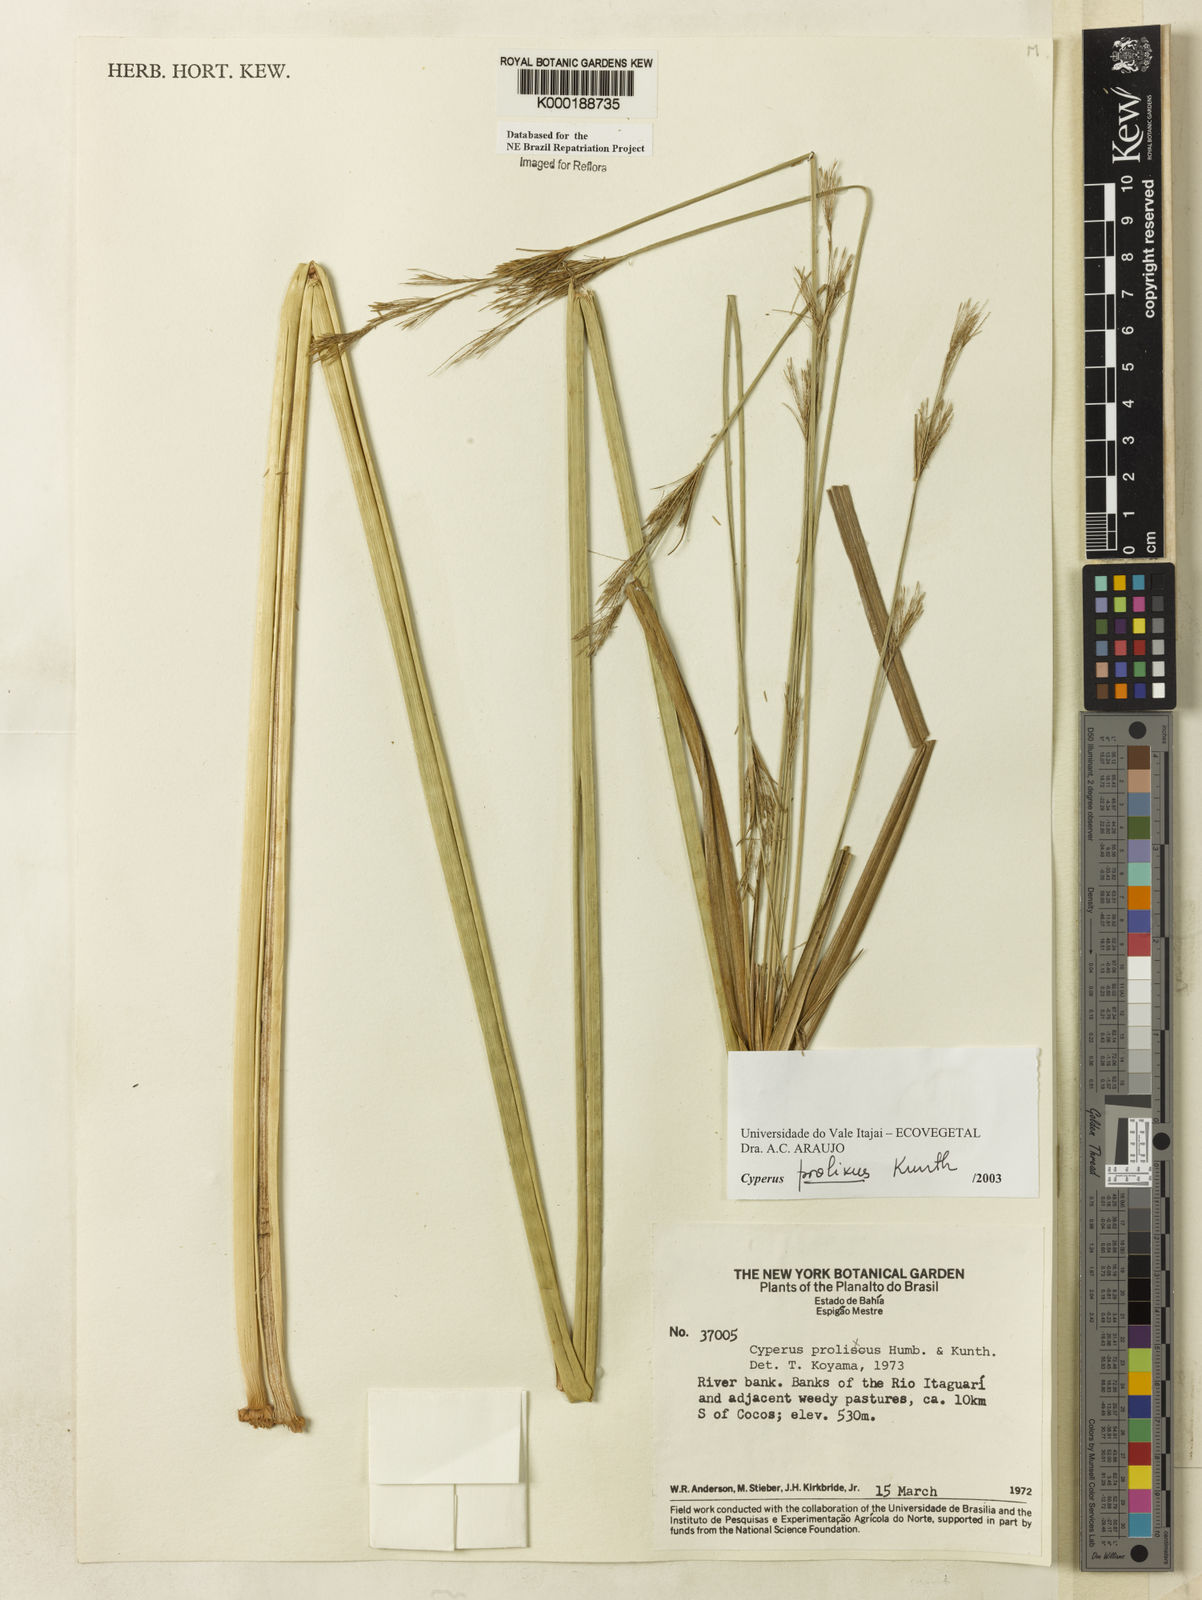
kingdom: Plantae
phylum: Tracheophyta
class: Liliopsida
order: Poales
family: Cyperaceae
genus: Cyperus
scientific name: Cyperus prolixus
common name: Mosquito flatsedge
